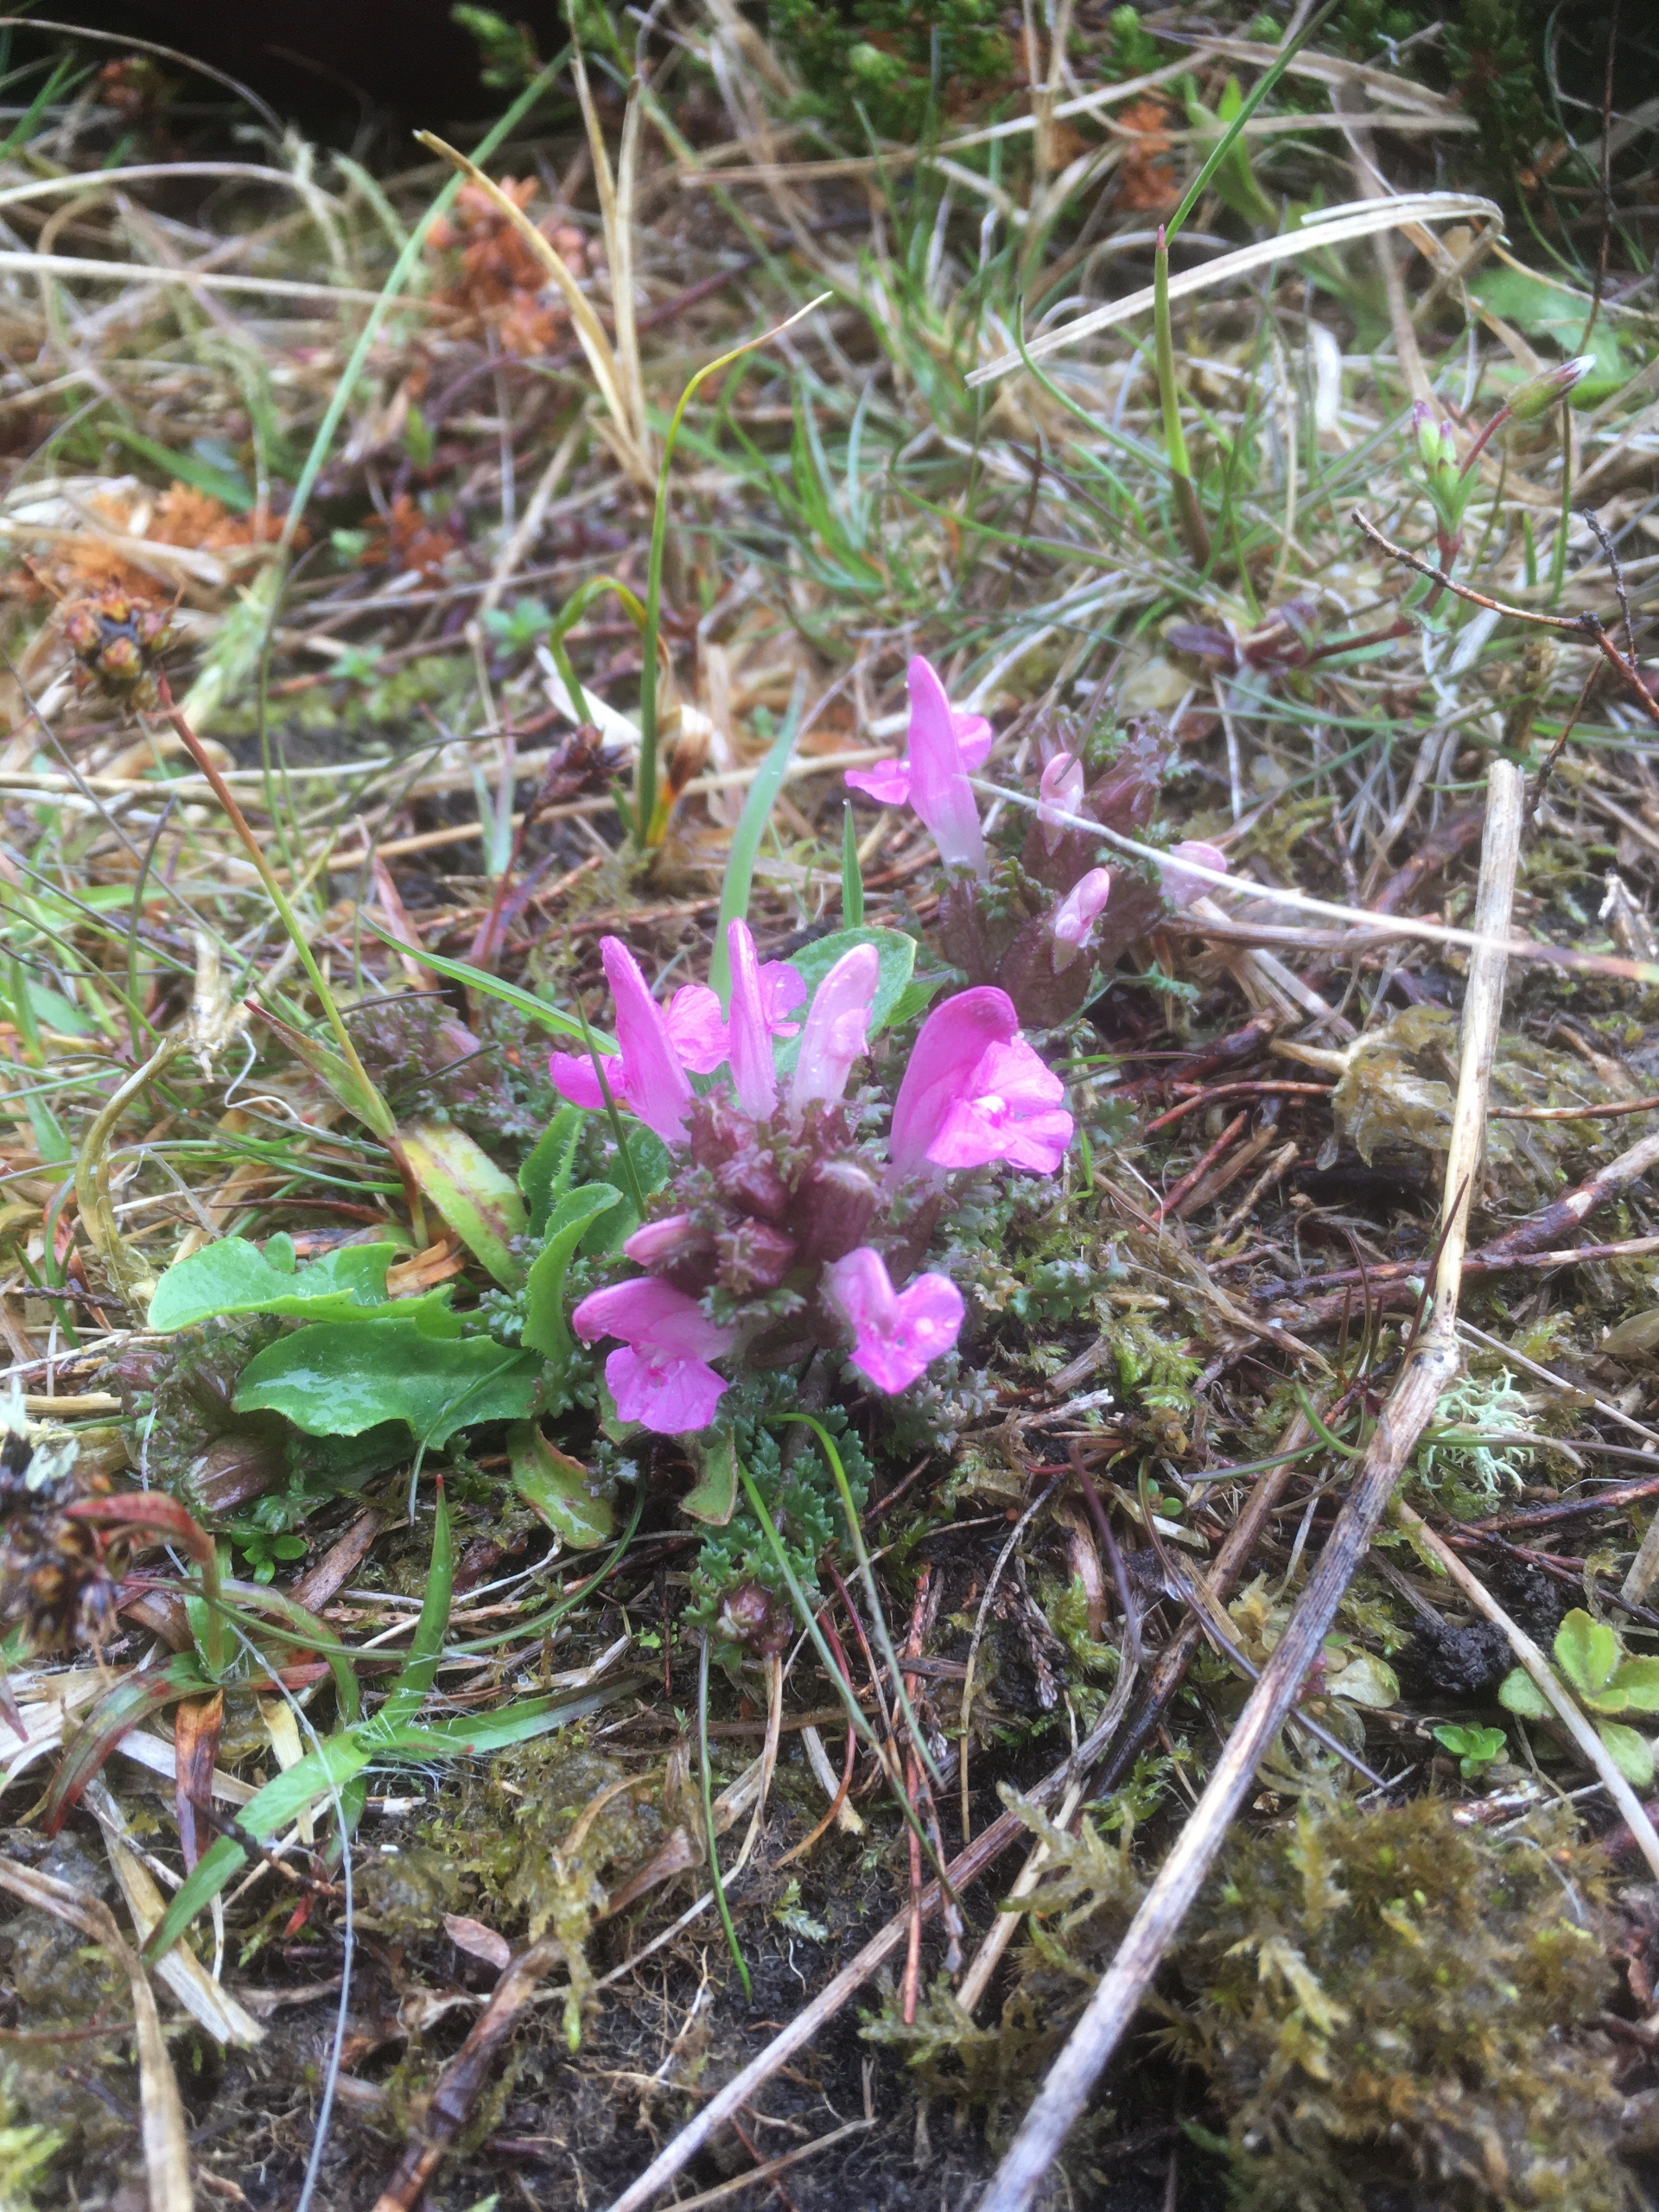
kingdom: Plantae
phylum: Tracheophyta
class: Magnoliopsida
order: Lamiales
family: Orobanchaceae
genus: Pedicularis
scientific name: Pedicularis sylvatica
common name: Mose-troldurt
